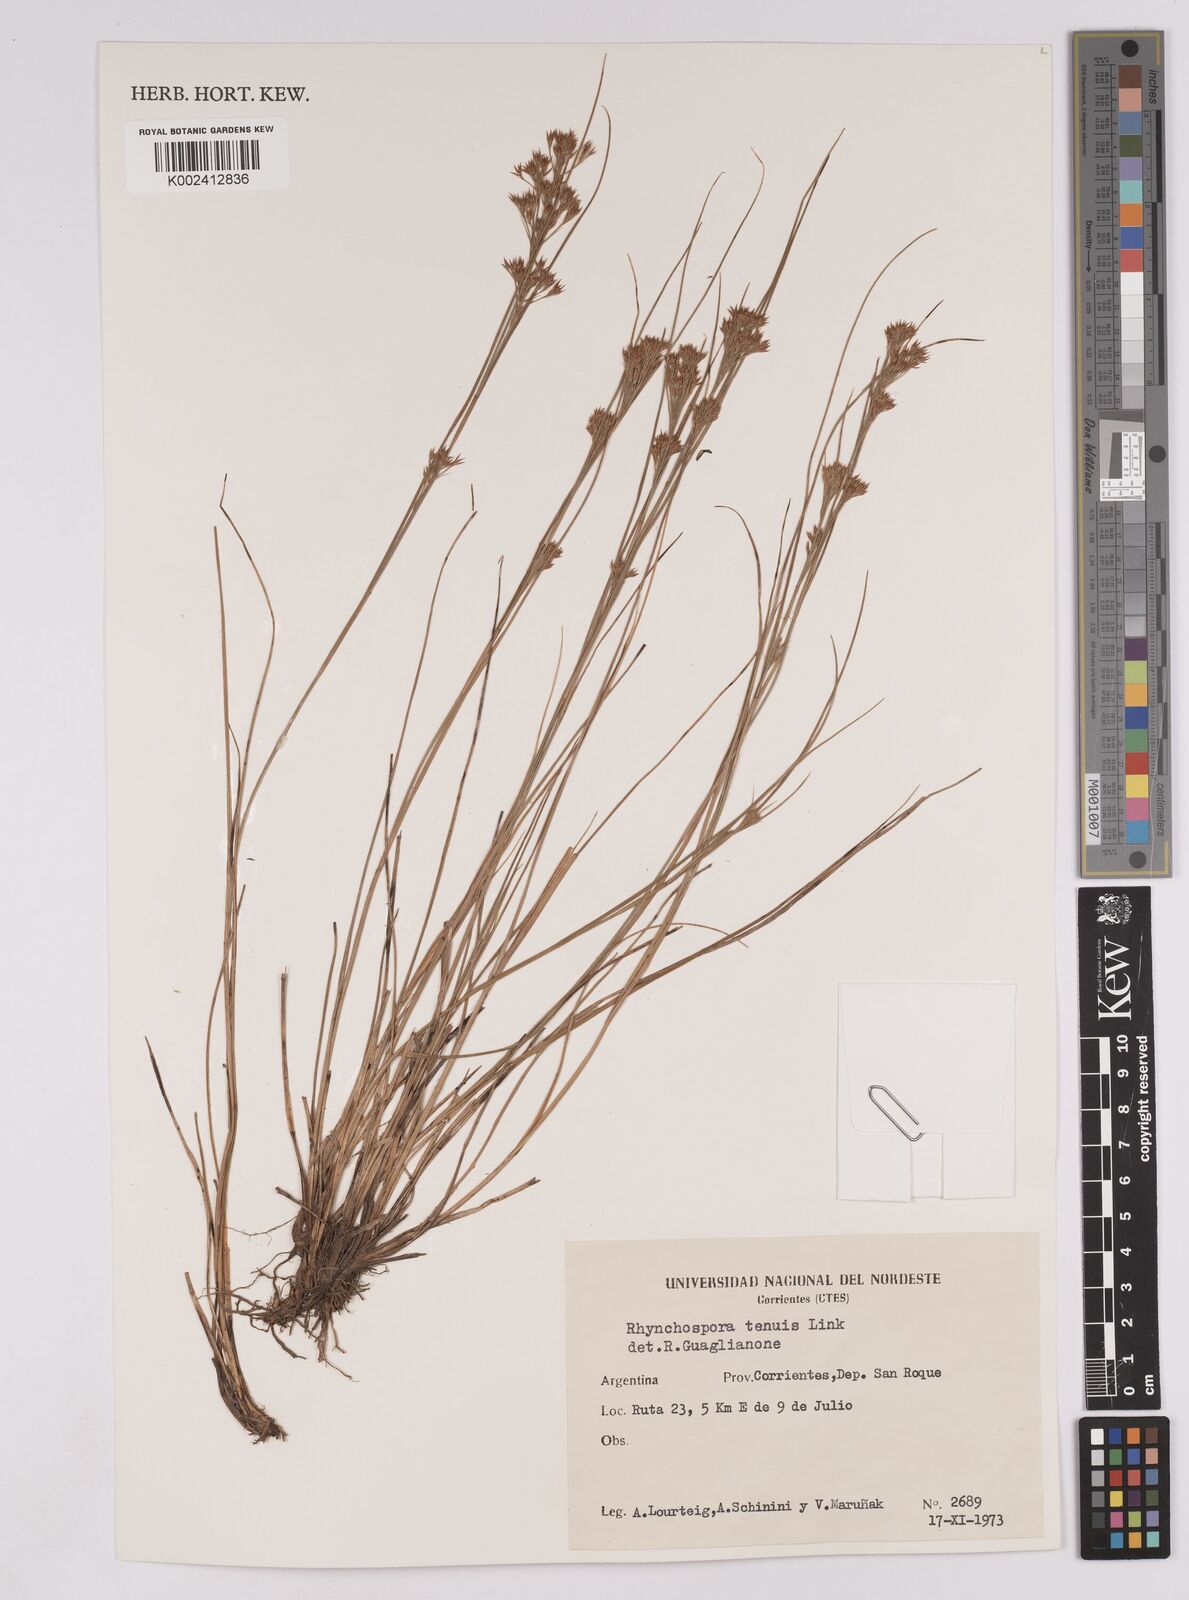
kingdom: Plantae
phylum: Tracheophyta
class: Liliopsida
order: Poales
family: Cyperaceae
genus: Rhynchospora
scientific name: Rhynchospora tenuis
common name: Quill beaksedge
